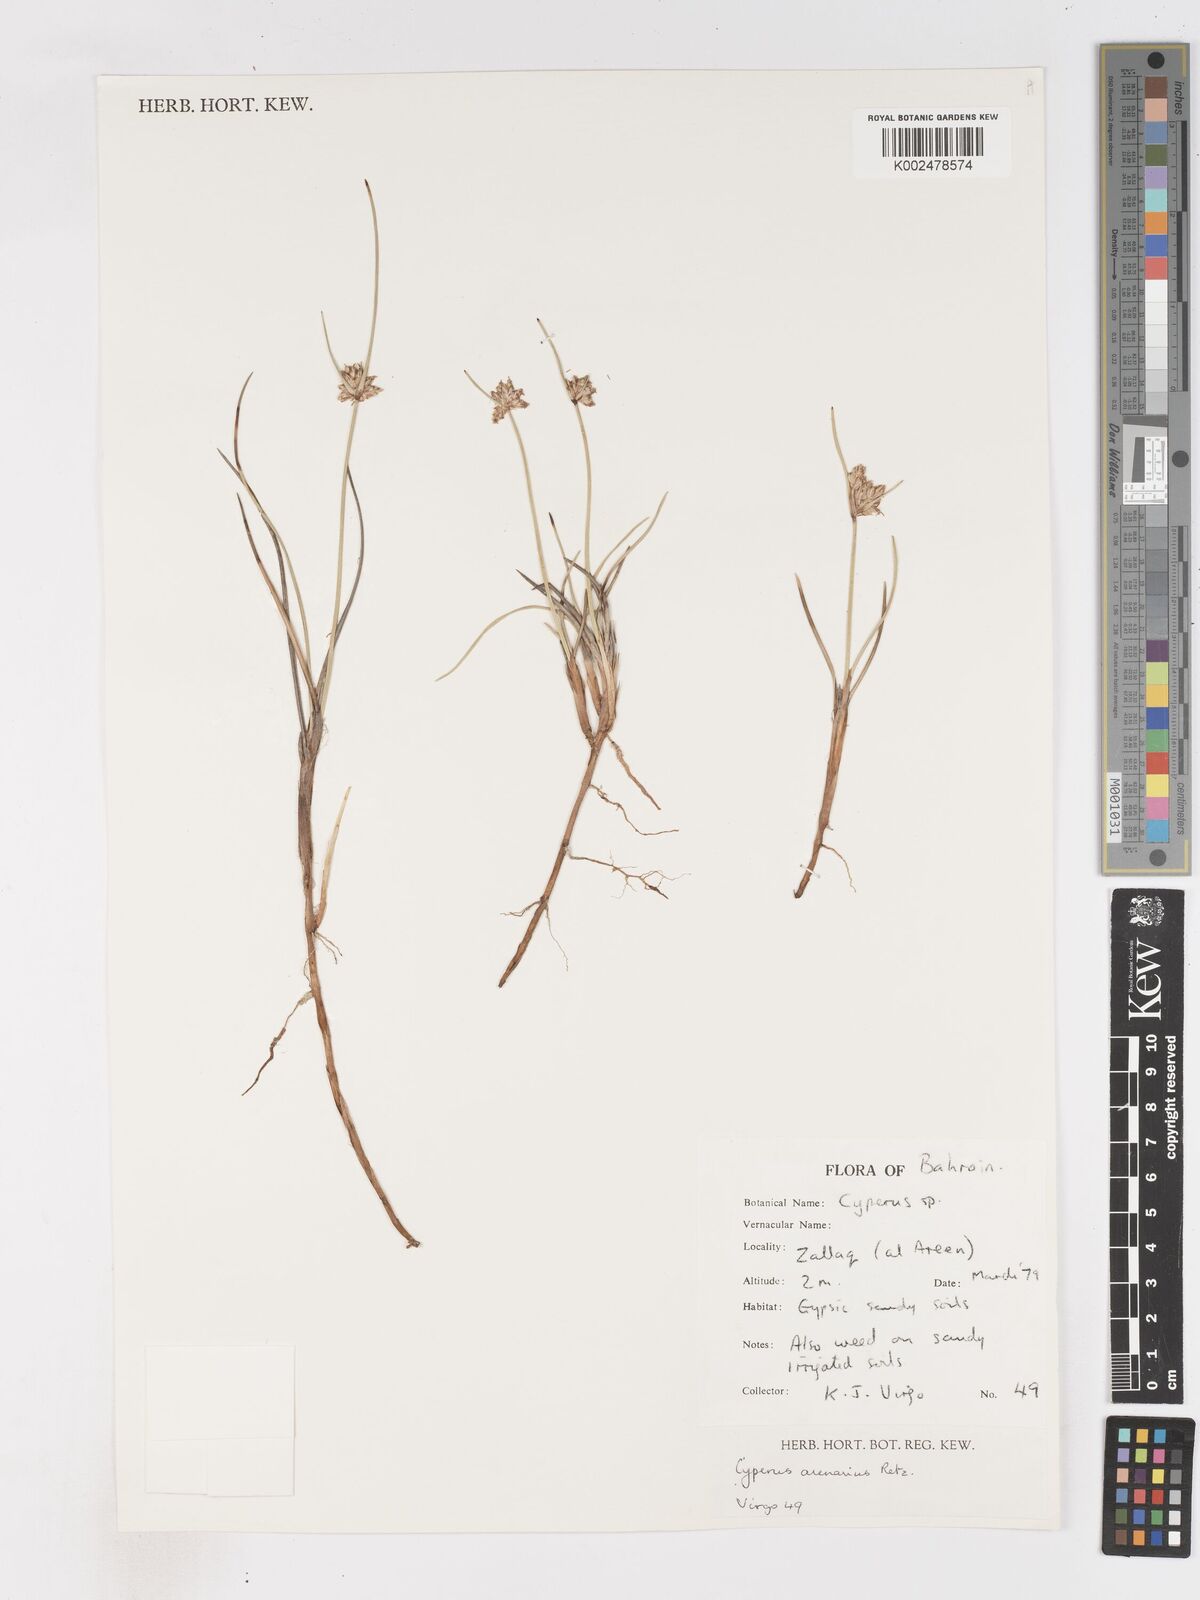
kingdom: Plantae
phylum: Tracheophyta
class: Liliopsida
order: Poales
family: Cyperaceae
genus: Cyperus
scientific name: Cyperus arenarius
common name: Dwarf sedge
